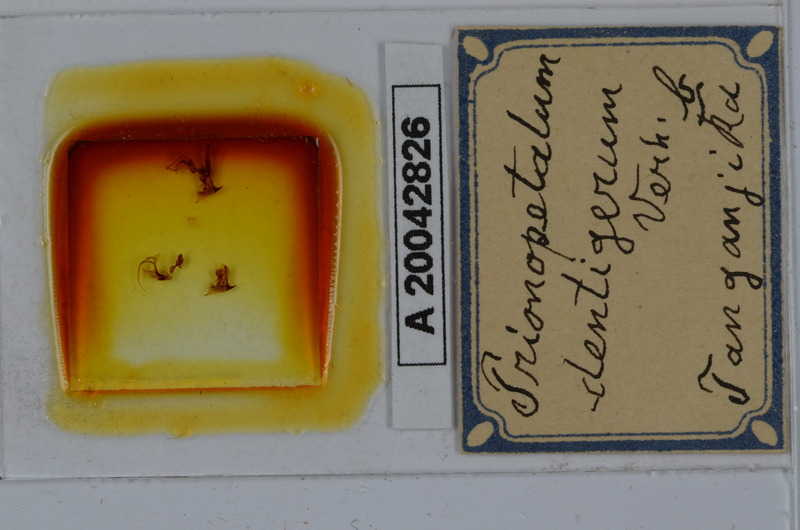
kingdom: Animalia
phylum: Arthropoda
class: Diplopoda
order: Spirostreptida
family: Odontopygidae
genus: Prionopetalum
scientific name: Prionopetalum dentigerum
